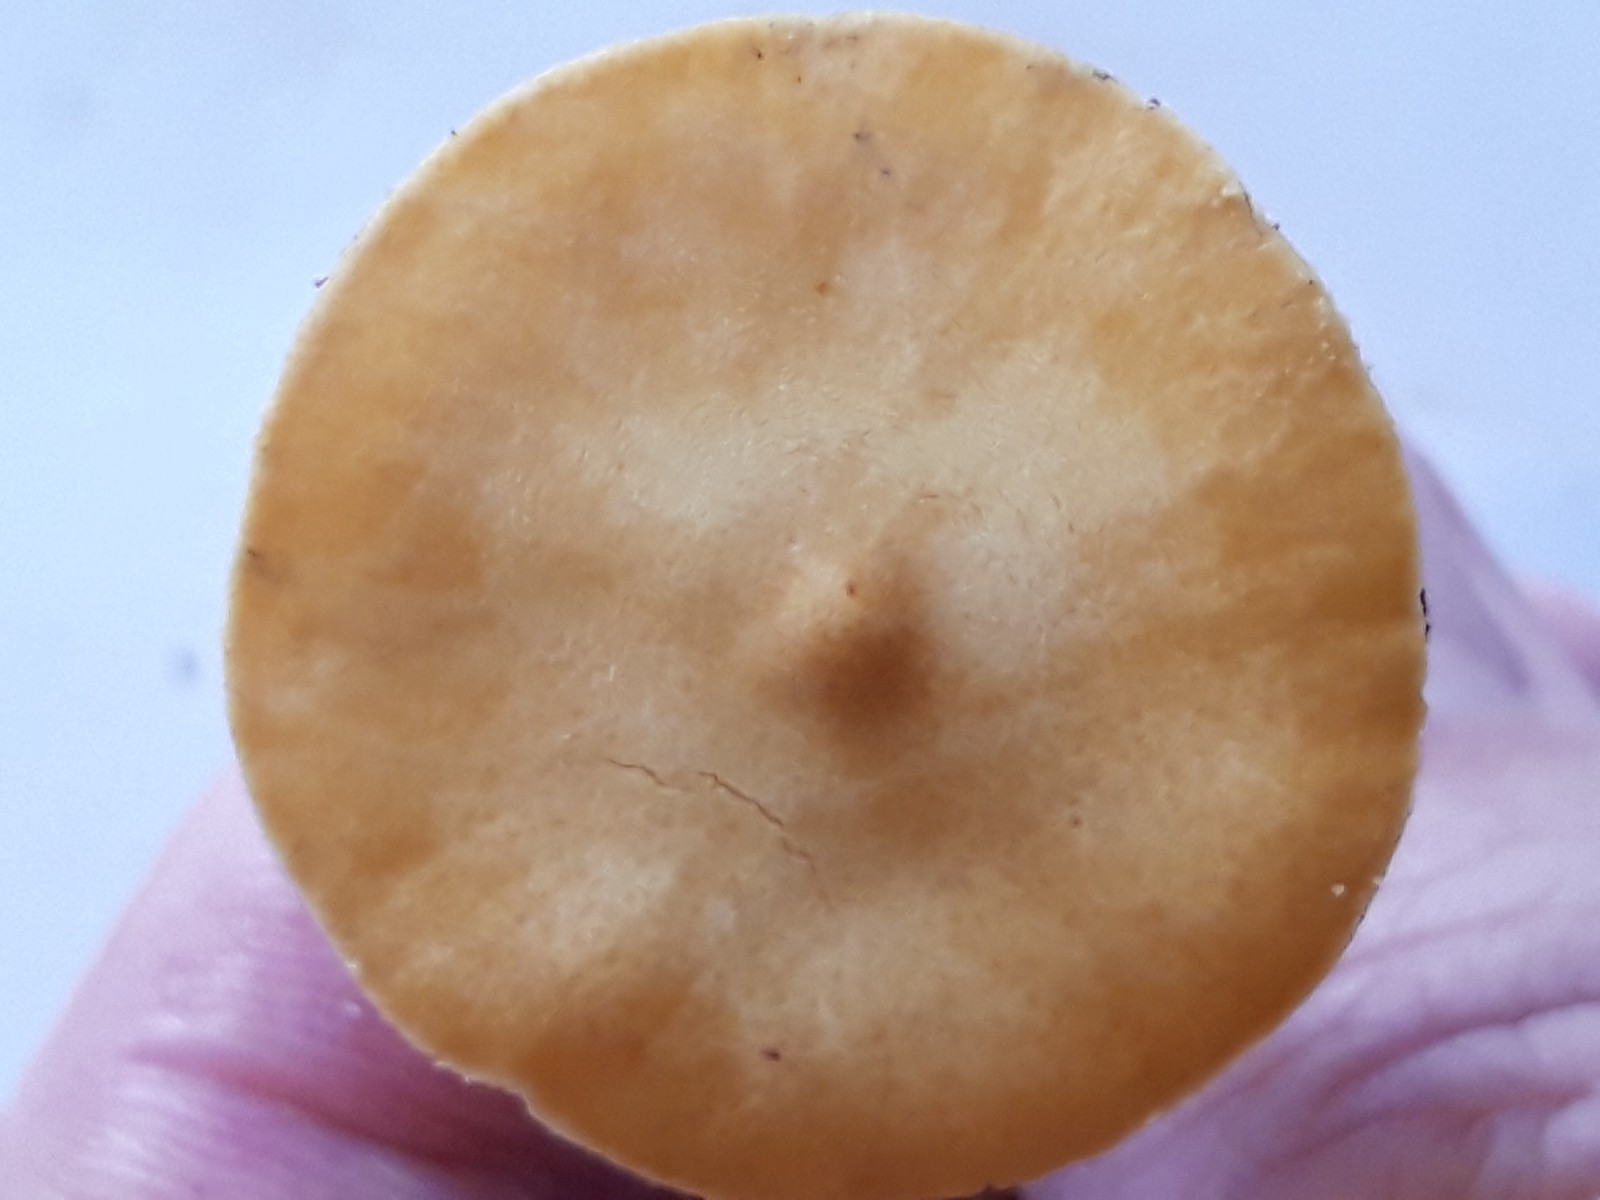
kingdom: Fungi
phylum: Basidiomycota
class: Agaricomycetes
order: Agaricales
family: Tricholomataceae
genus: Cystoderma
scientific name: Cystoderma amianthinum
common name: okkergul grynhat
